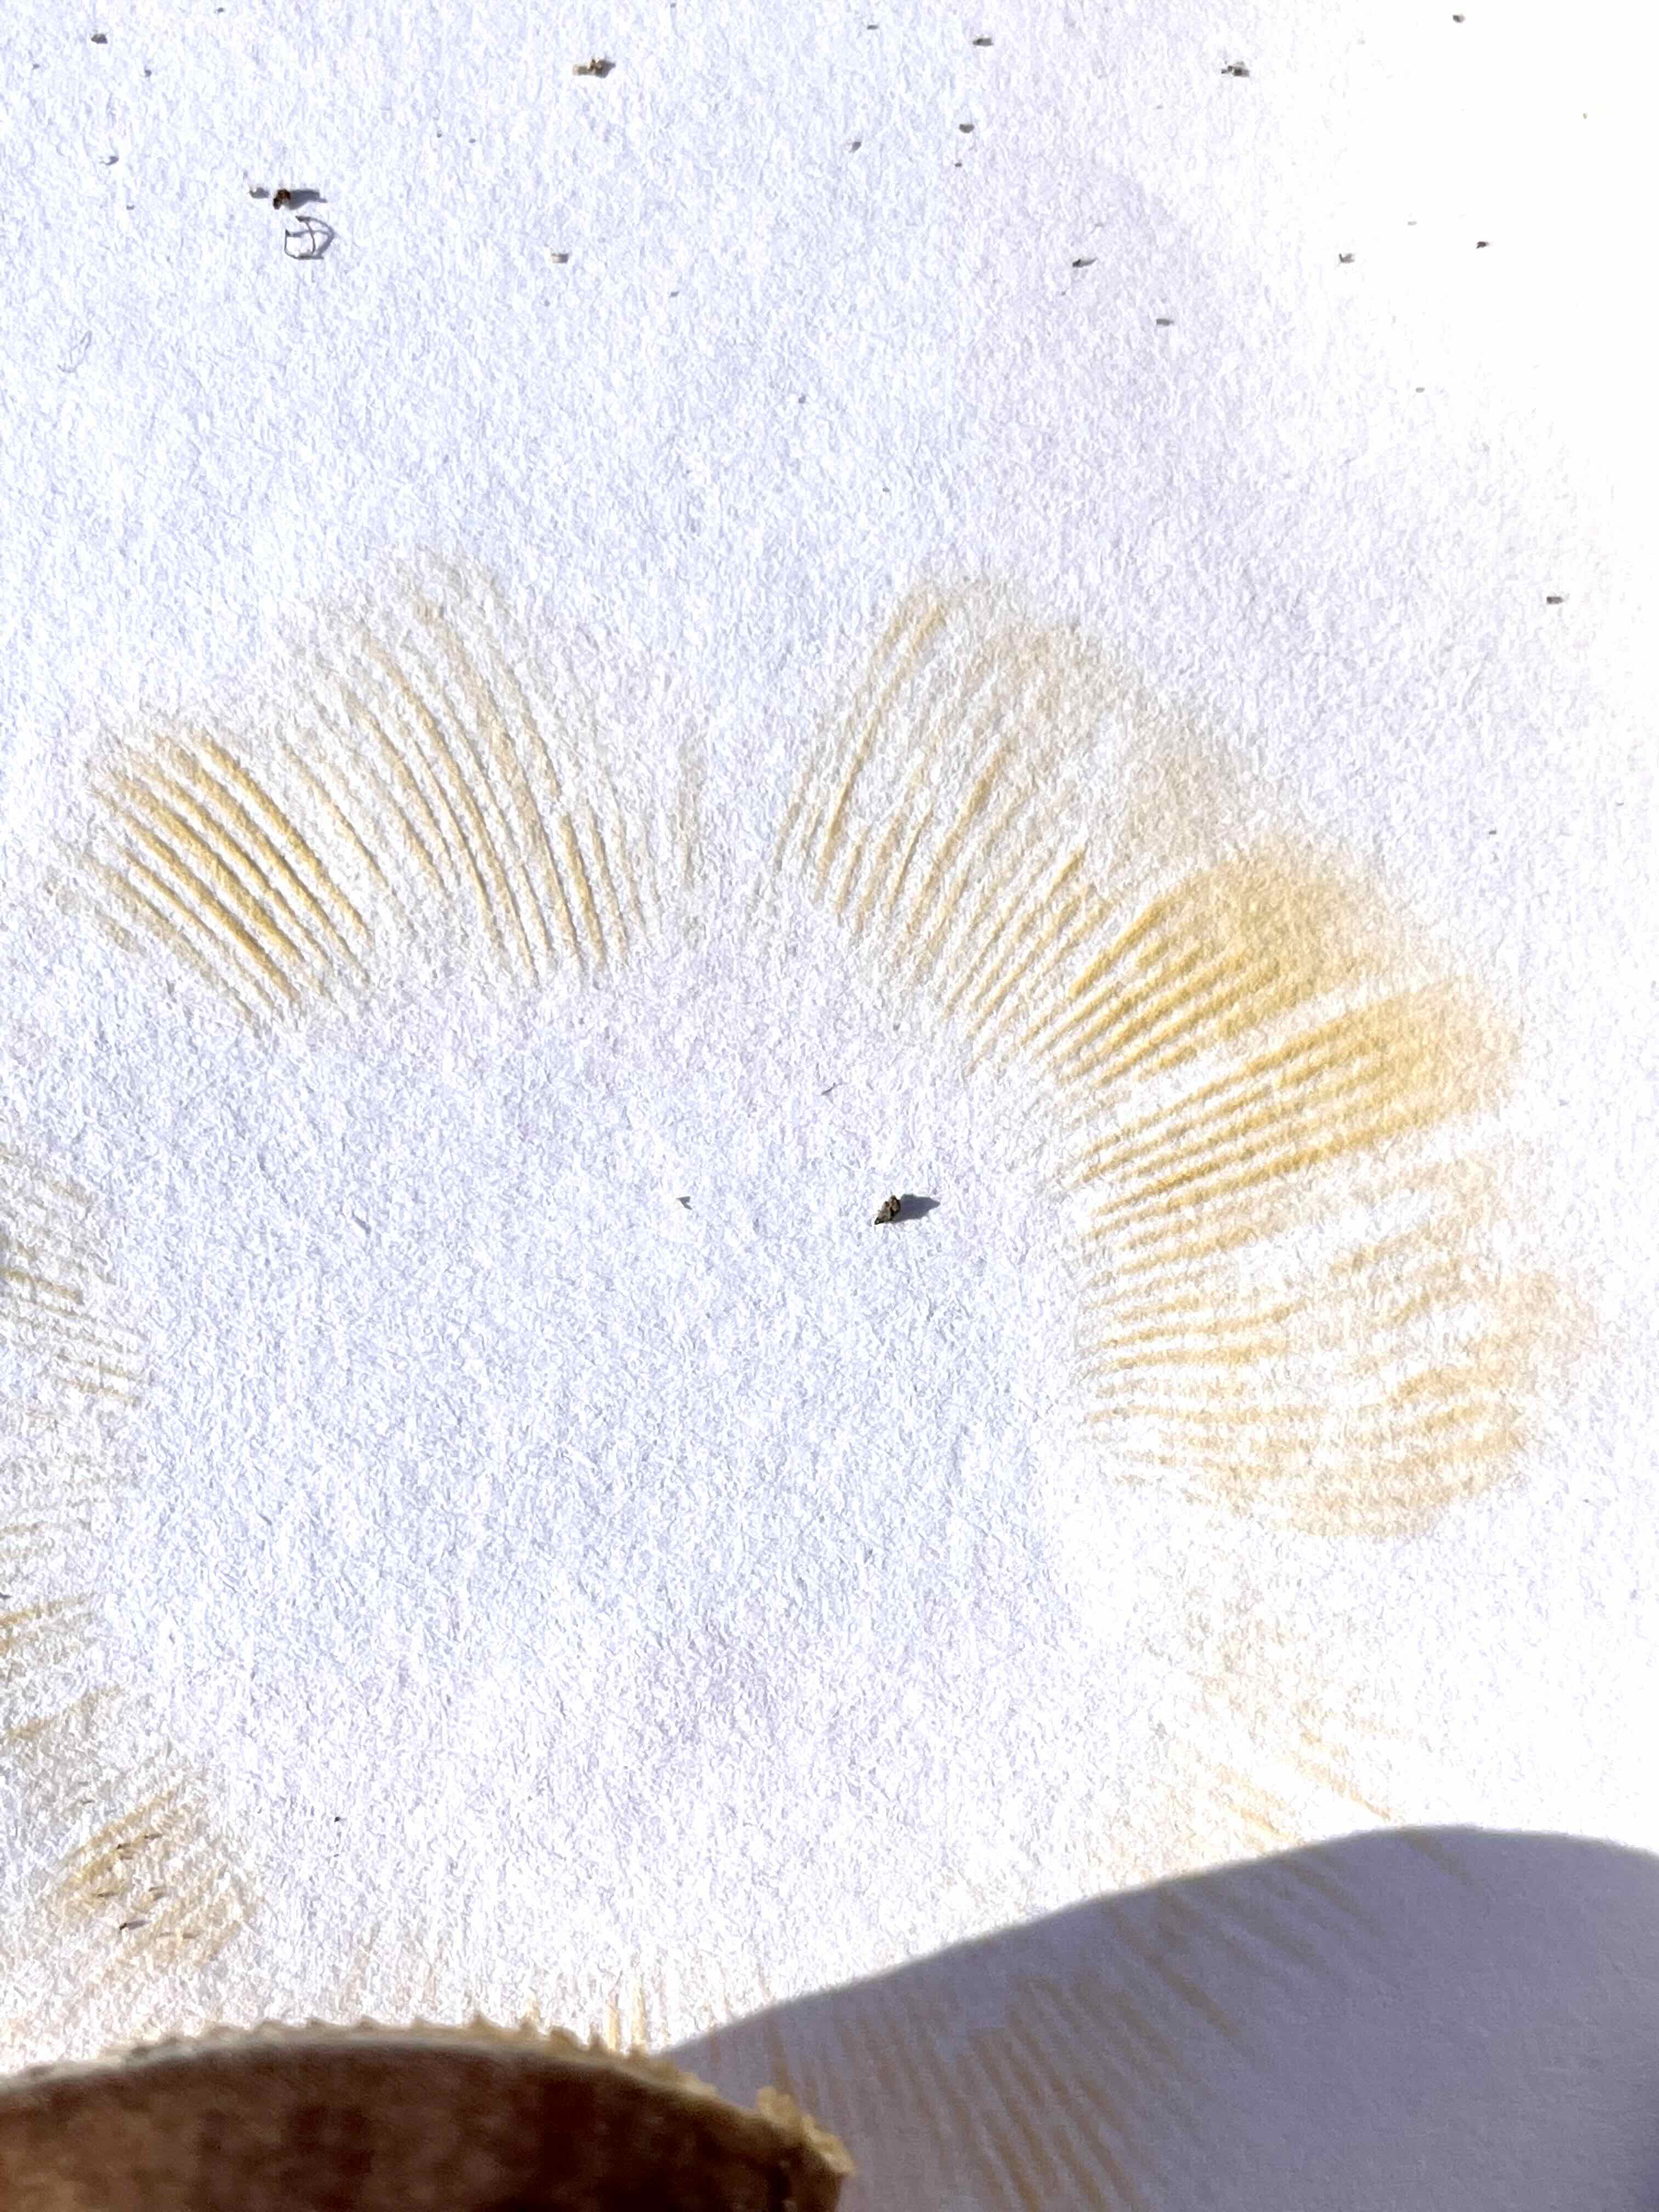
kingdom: Fungi
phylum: Basidiomycota
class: Agaricomycetes
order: Russulales
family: Russulaceae
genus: Russula
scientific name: Russula
